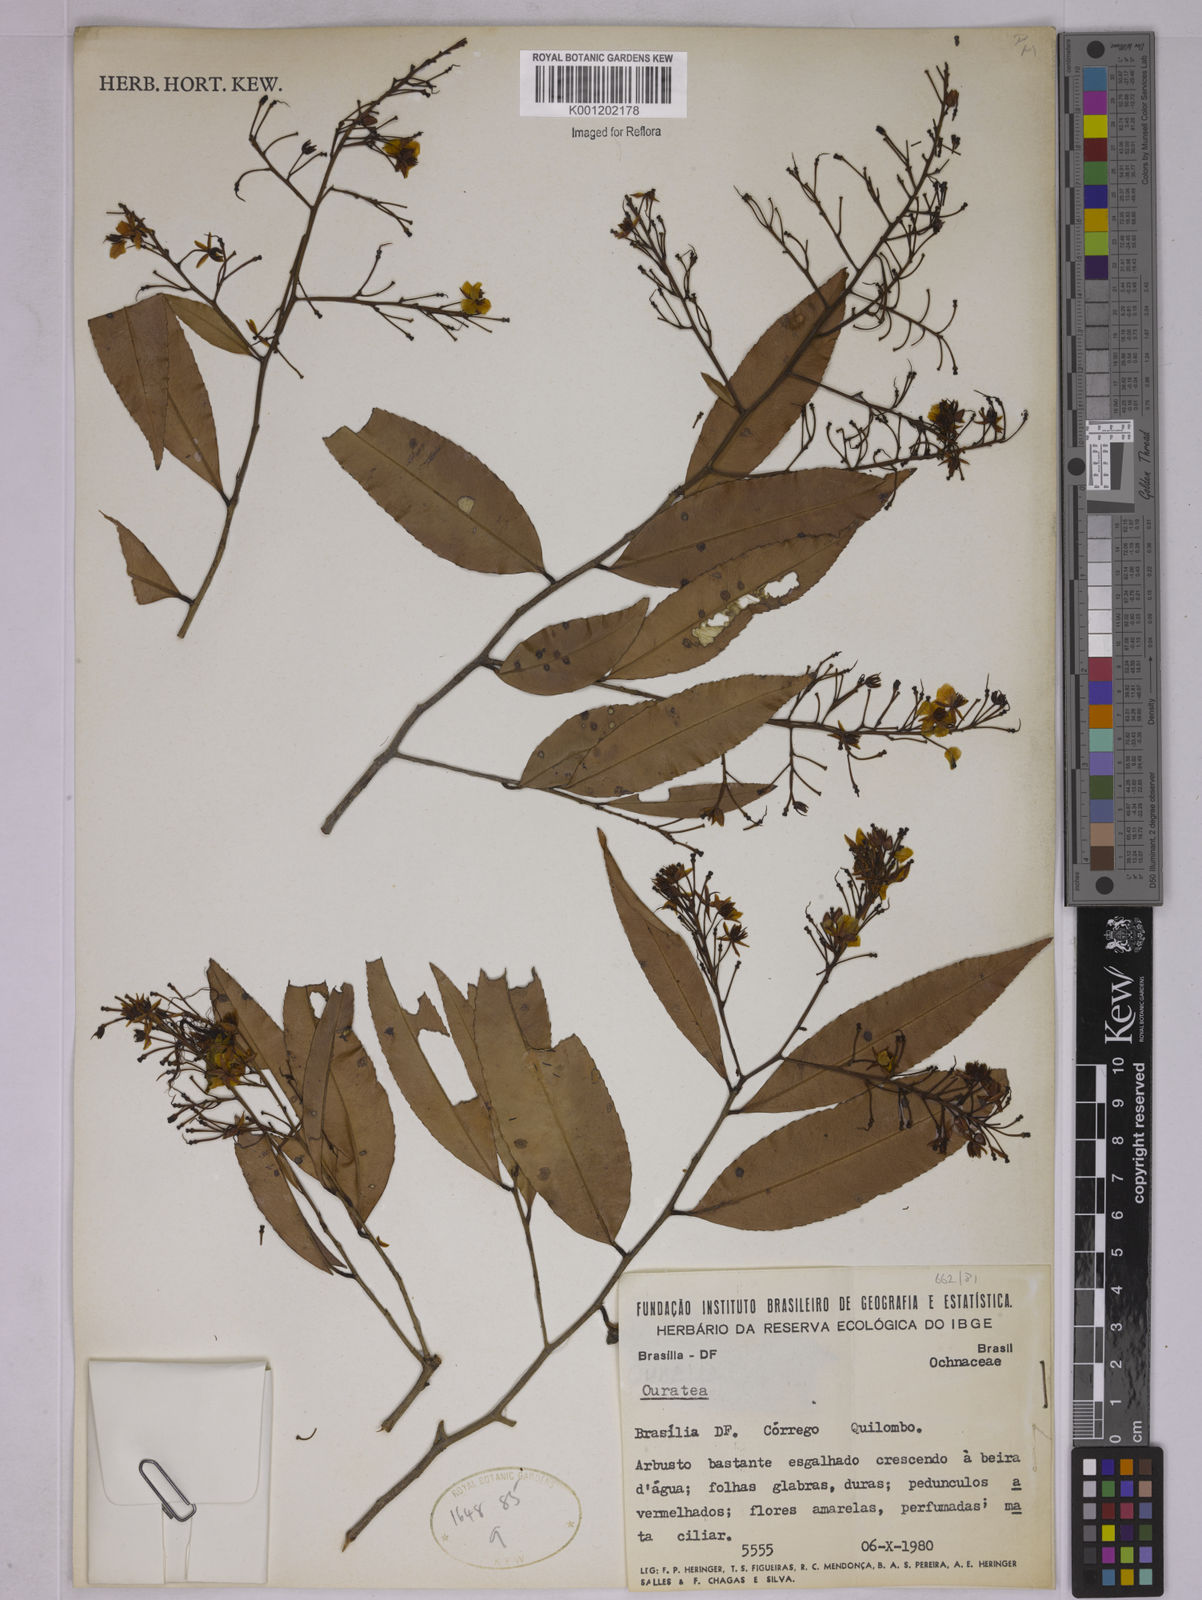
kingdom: Plantae
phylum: Tracheophyta
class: Magnoliopsida
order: Malpighiales
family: Ochnaceae
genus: Ouratea
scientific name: Ouratea
